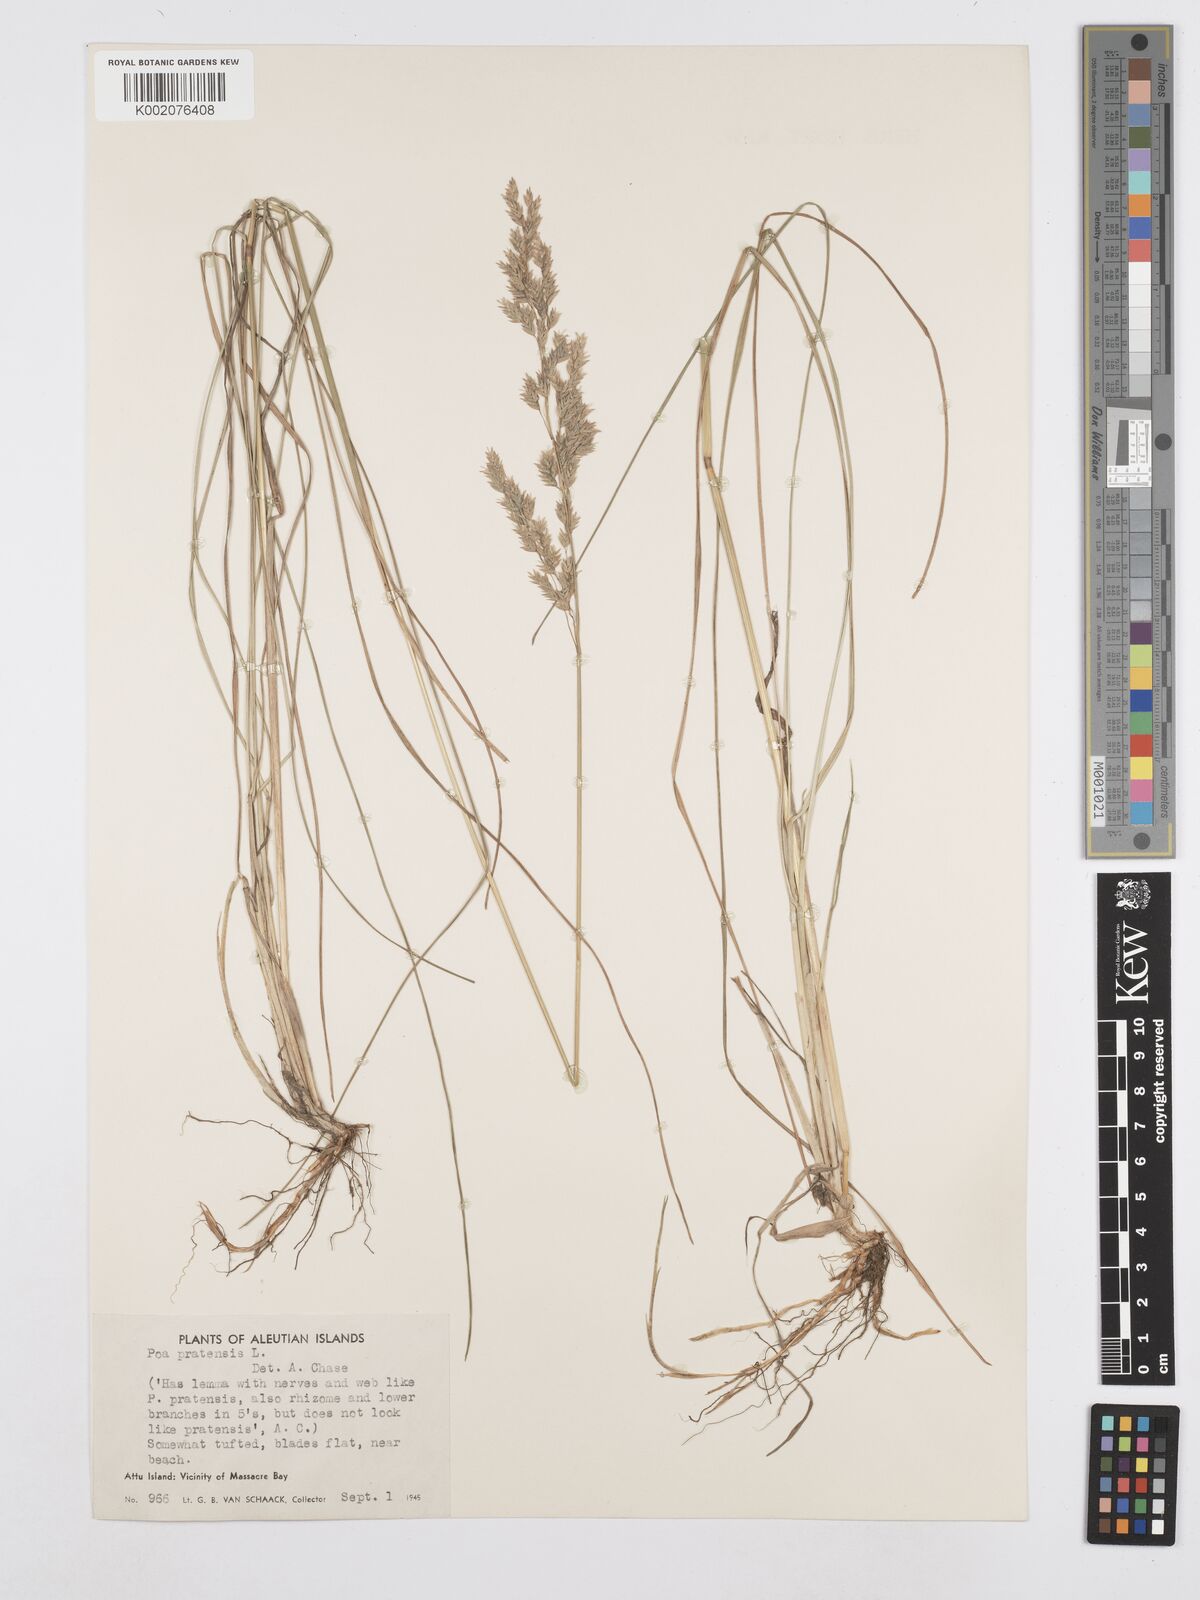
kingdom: Plantae
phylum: Tracheophyta
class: Liliopsida
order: Poales
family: Poaceae
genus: Poa
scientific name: Poa angustifolia
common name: Narrow-leaved meadow-grass
